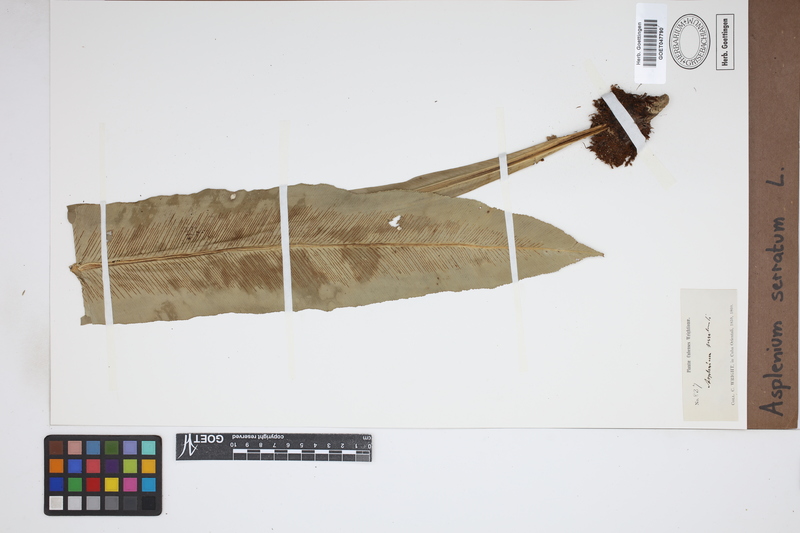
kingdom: Plantae
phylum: Tracheophyta
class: Polypodiopsida
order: Polypodiales
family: Aspleniaceae
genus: Asplenium
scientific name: Asplenium serratum
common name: Wild birdnest fern
